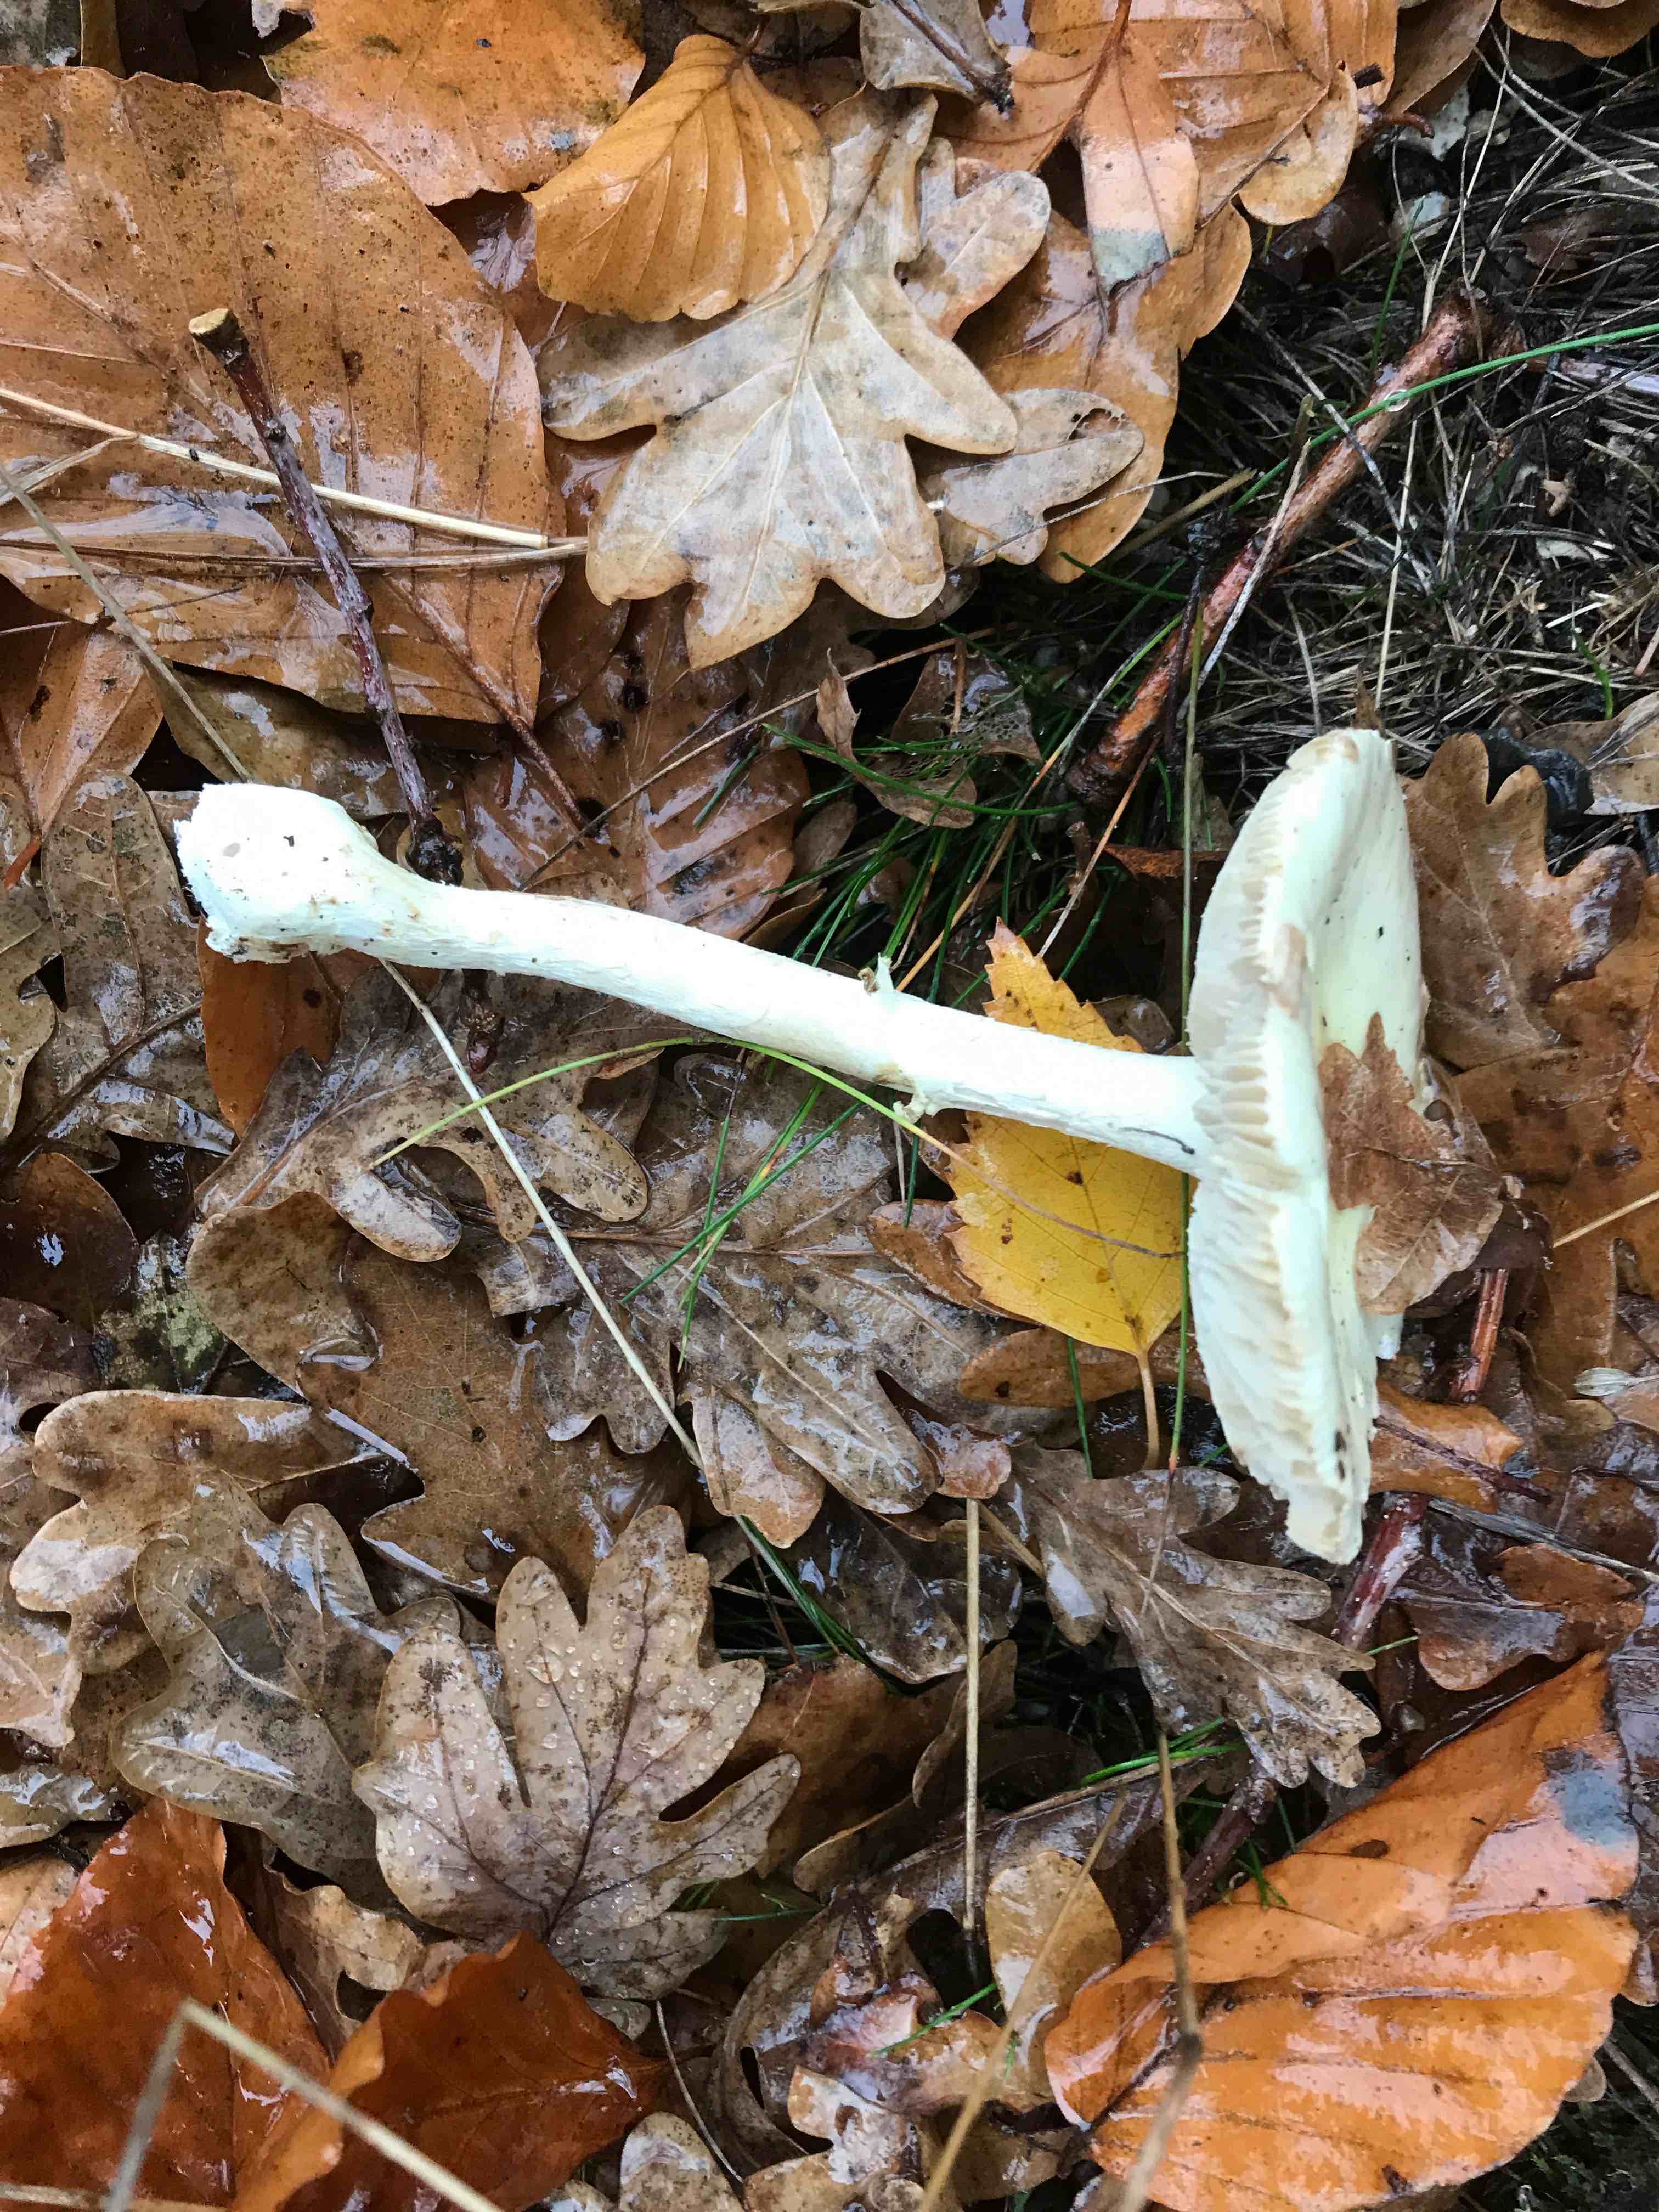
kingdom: Fungi
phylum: Basidiomycota
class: Agaricomycetes
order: Agaricales
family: Amanitaceae
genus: Amanita
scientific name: Amanita phalloides
